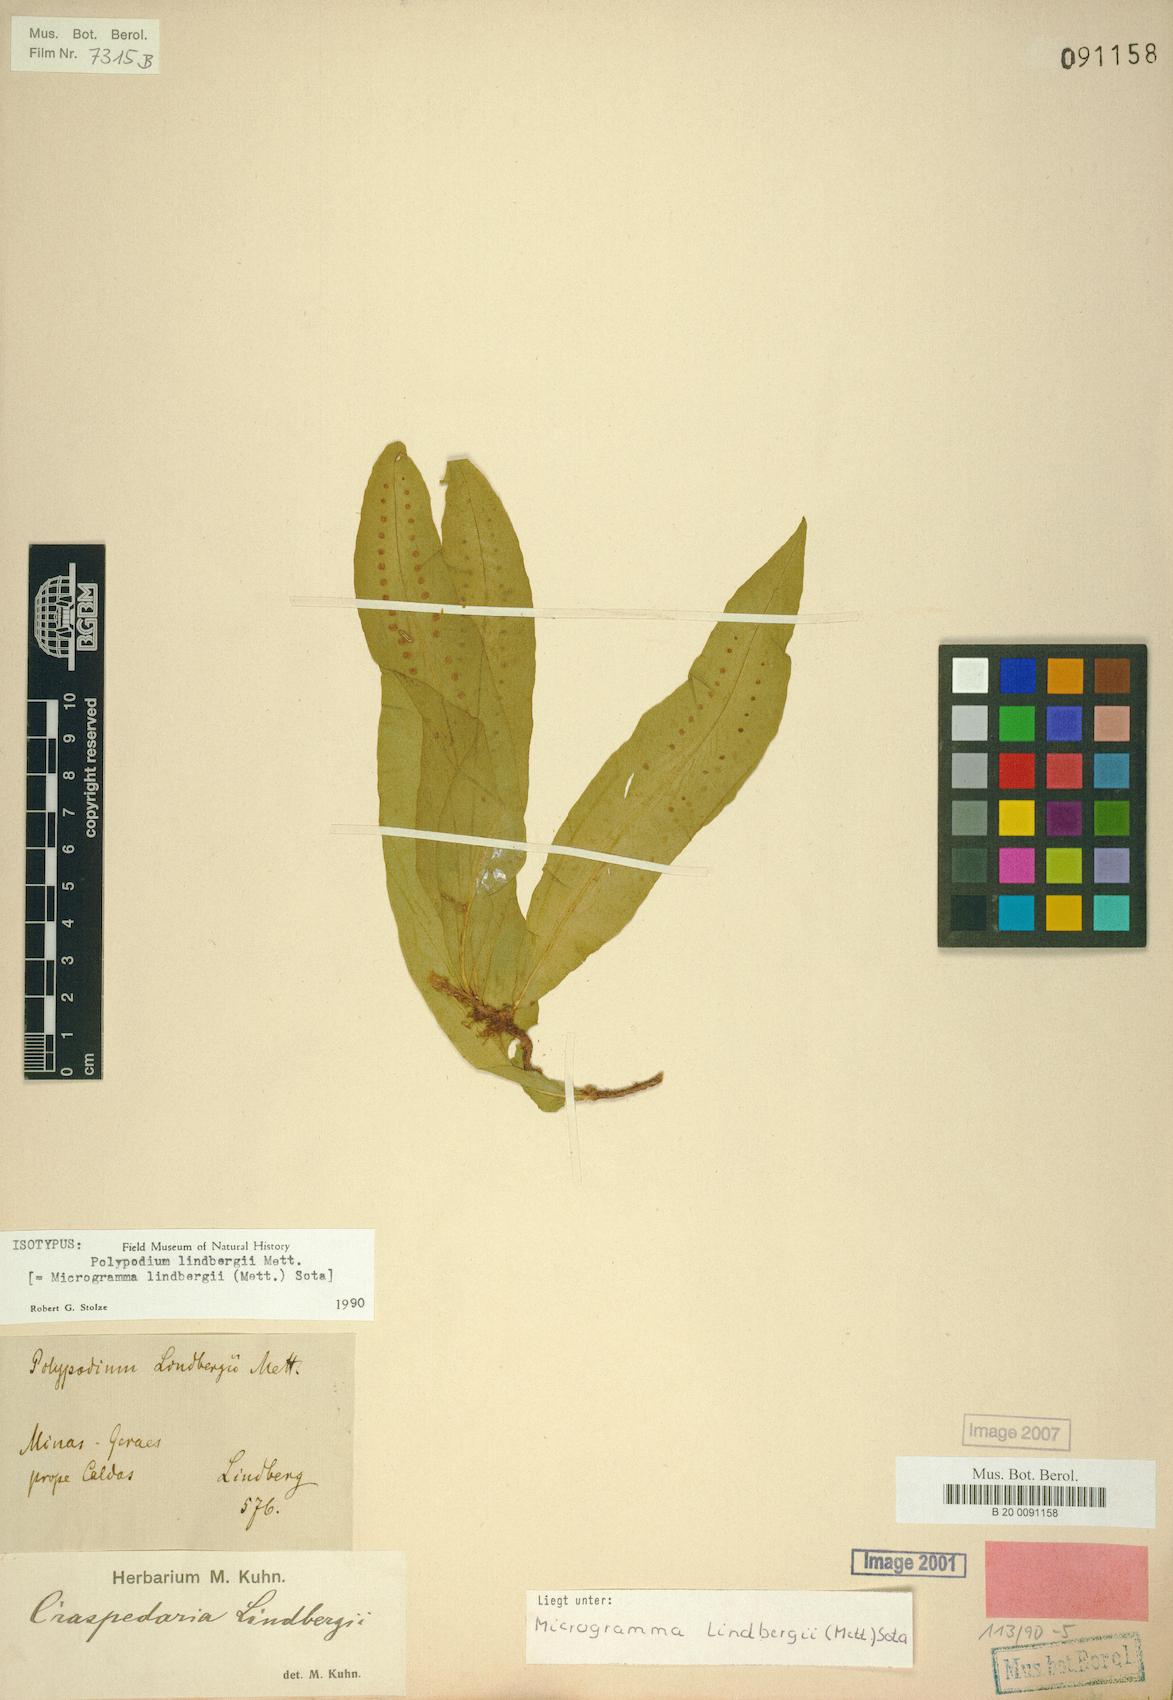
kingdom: Plantae
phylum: Tracheophyta
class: Polypodiopsida
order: Polypodiales
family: Polypodiaceae
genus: Microgramma
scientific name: Microgramma lindbergii
